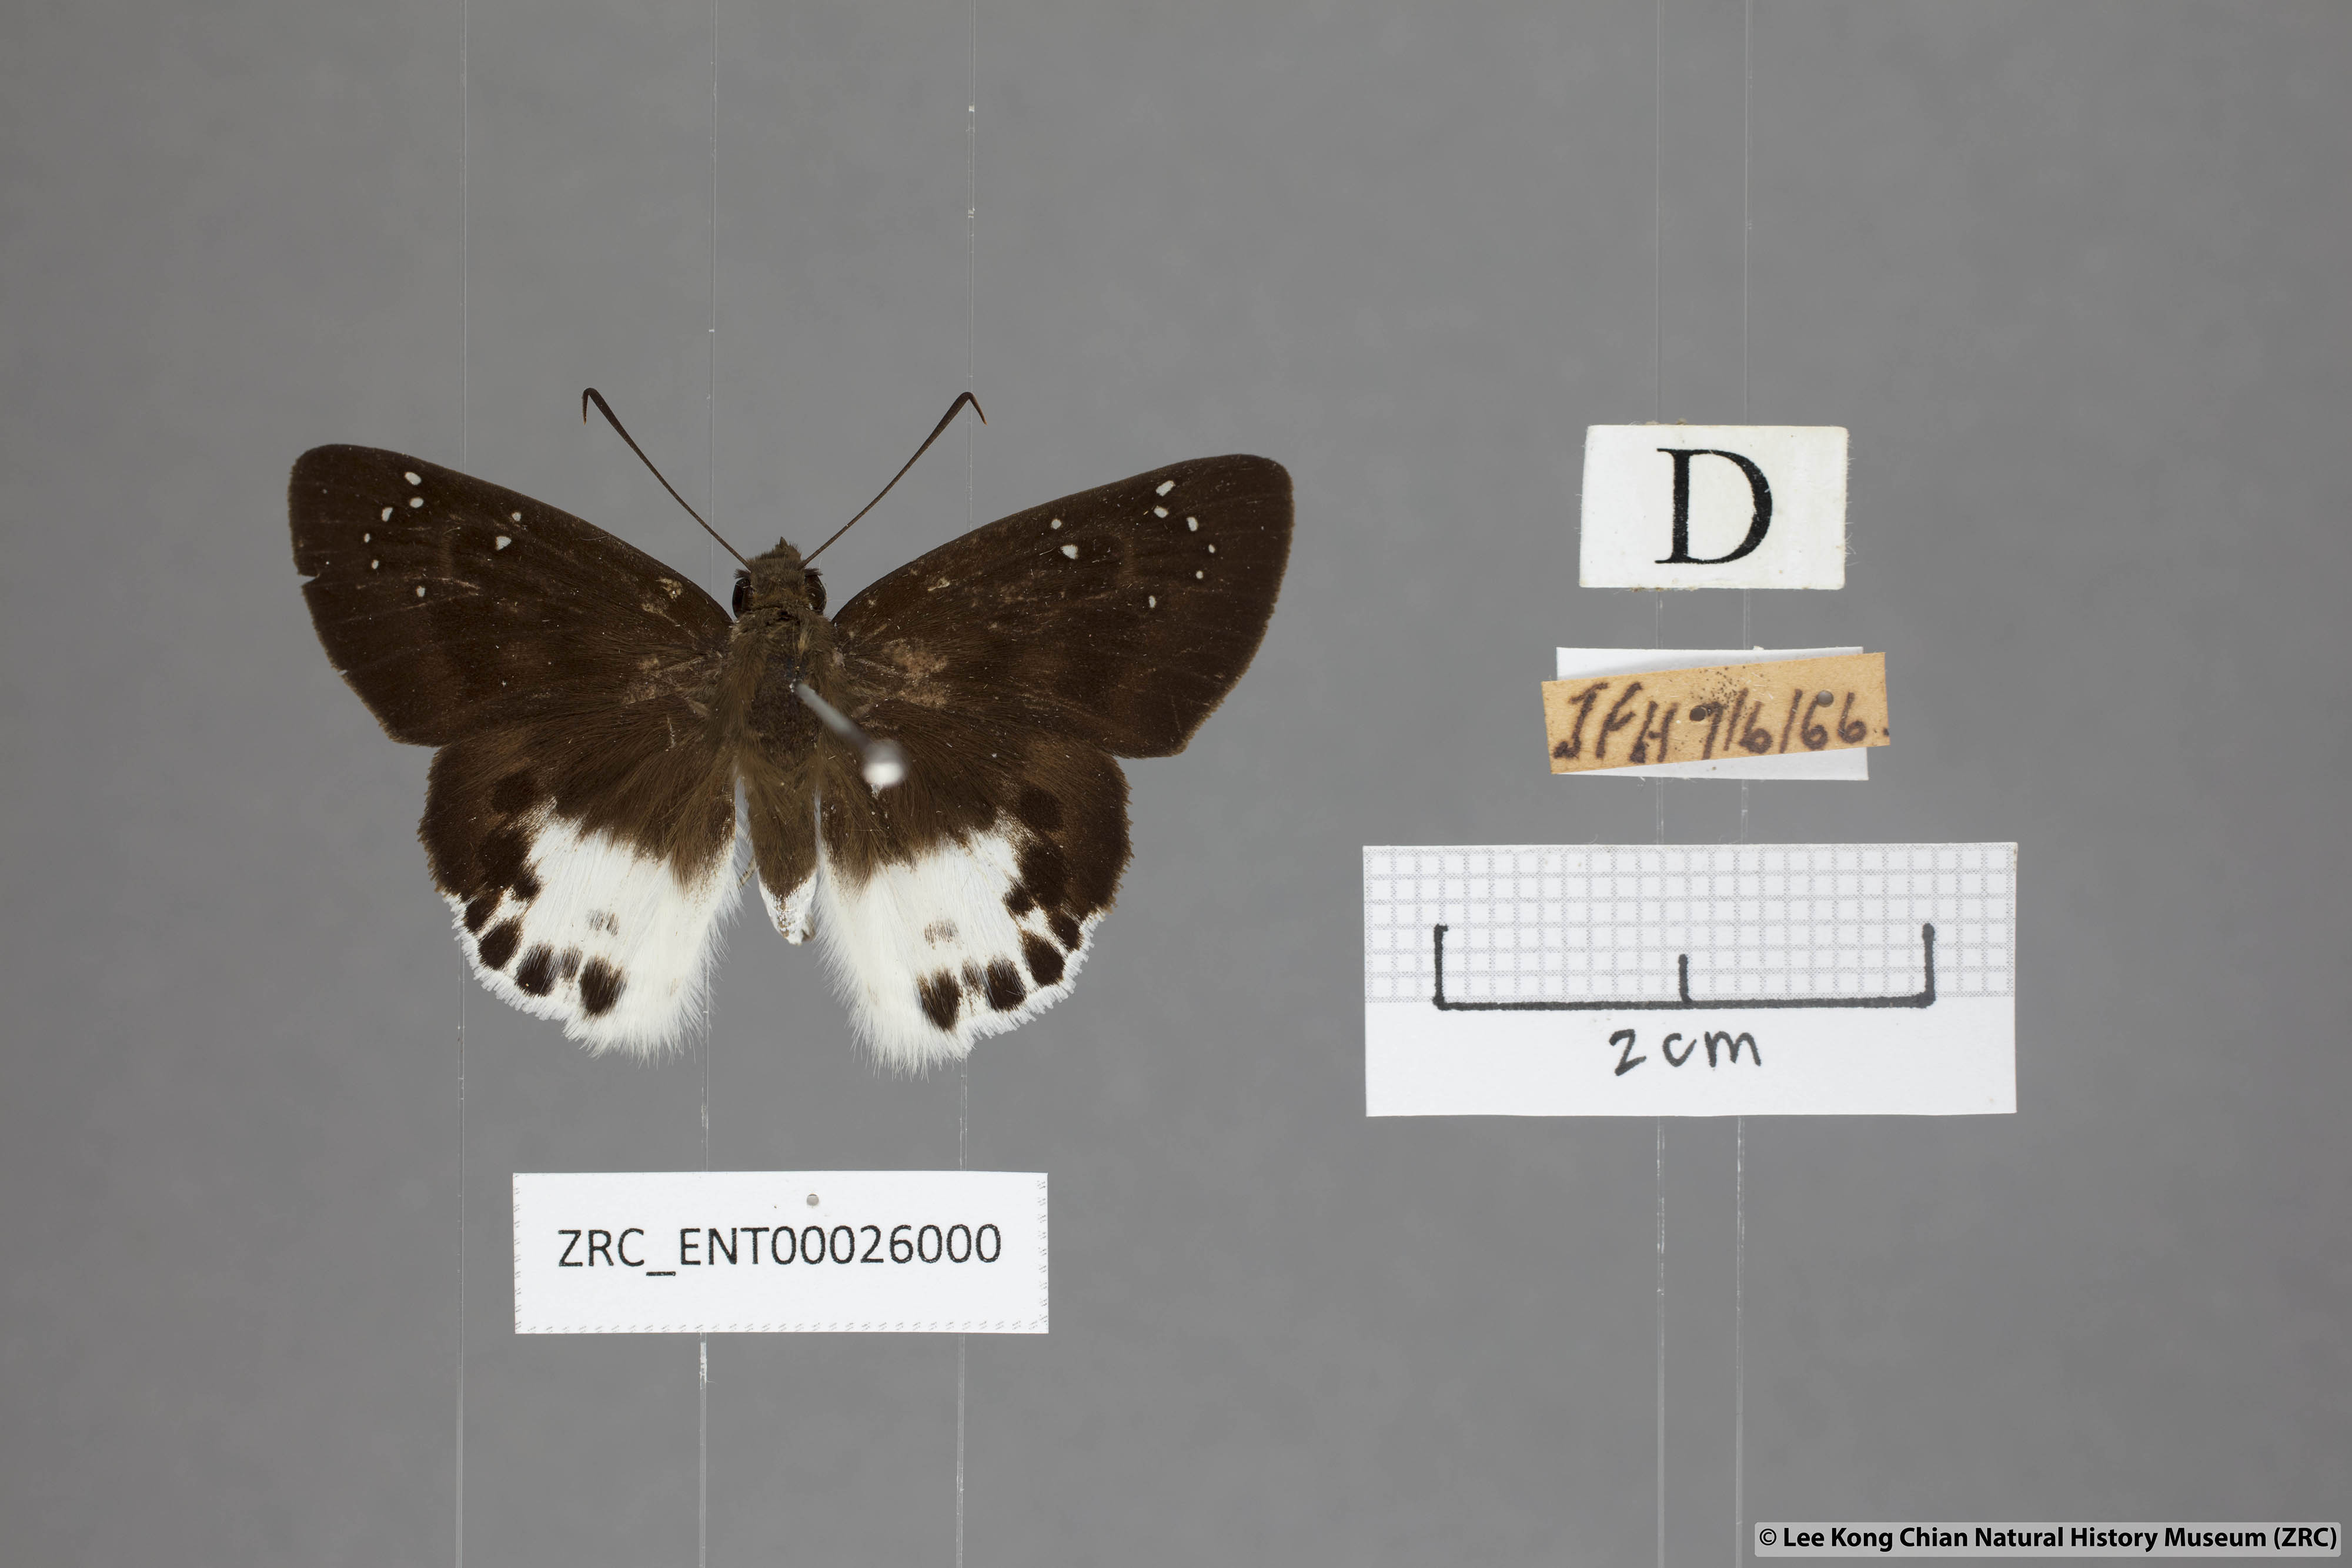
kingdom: Animalia
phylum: Arthropoda
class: Insecta
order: Lepidoptera
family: Hesperiidae
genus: Tagiades
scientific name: Tagiades menaka
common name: Dark-edged snow flat
